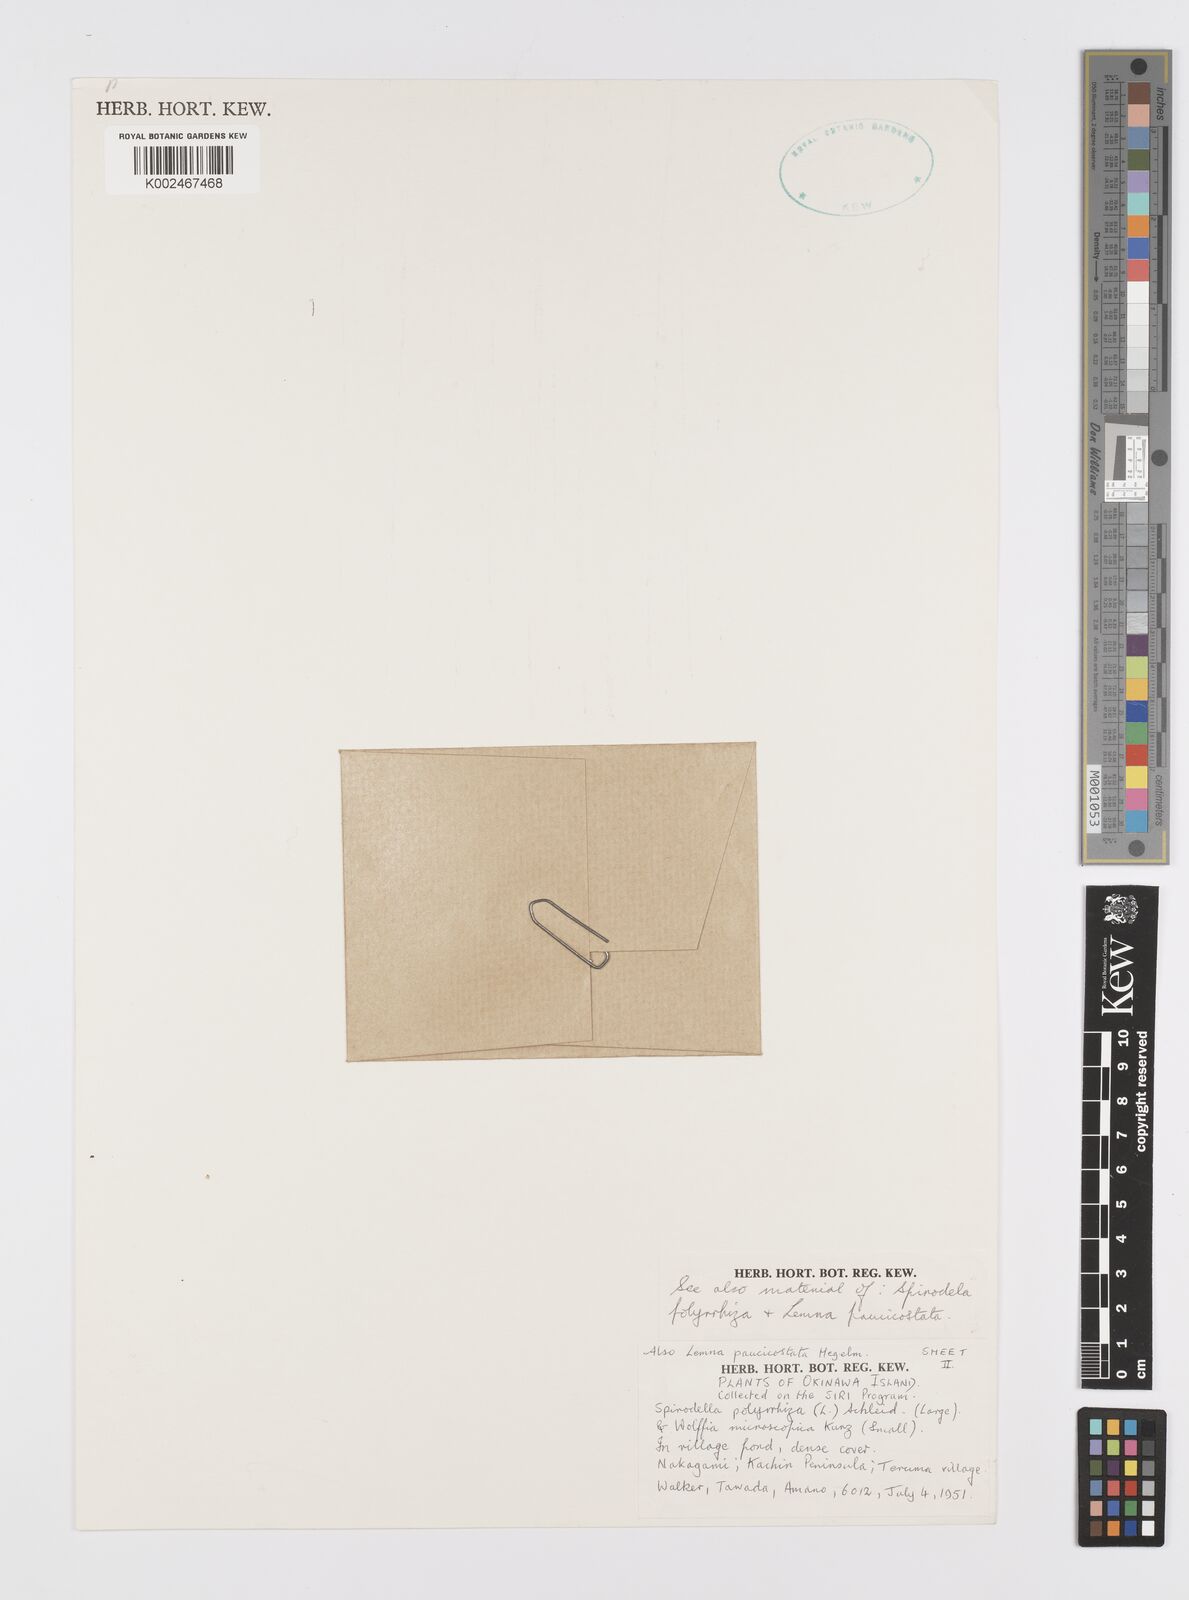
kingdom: Plantae
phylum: Tracheophyta
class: Liliopsida
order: Alismatales
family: Araceae
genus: Lemna
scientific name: Lemna aequinoctialis
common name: Duckweed
